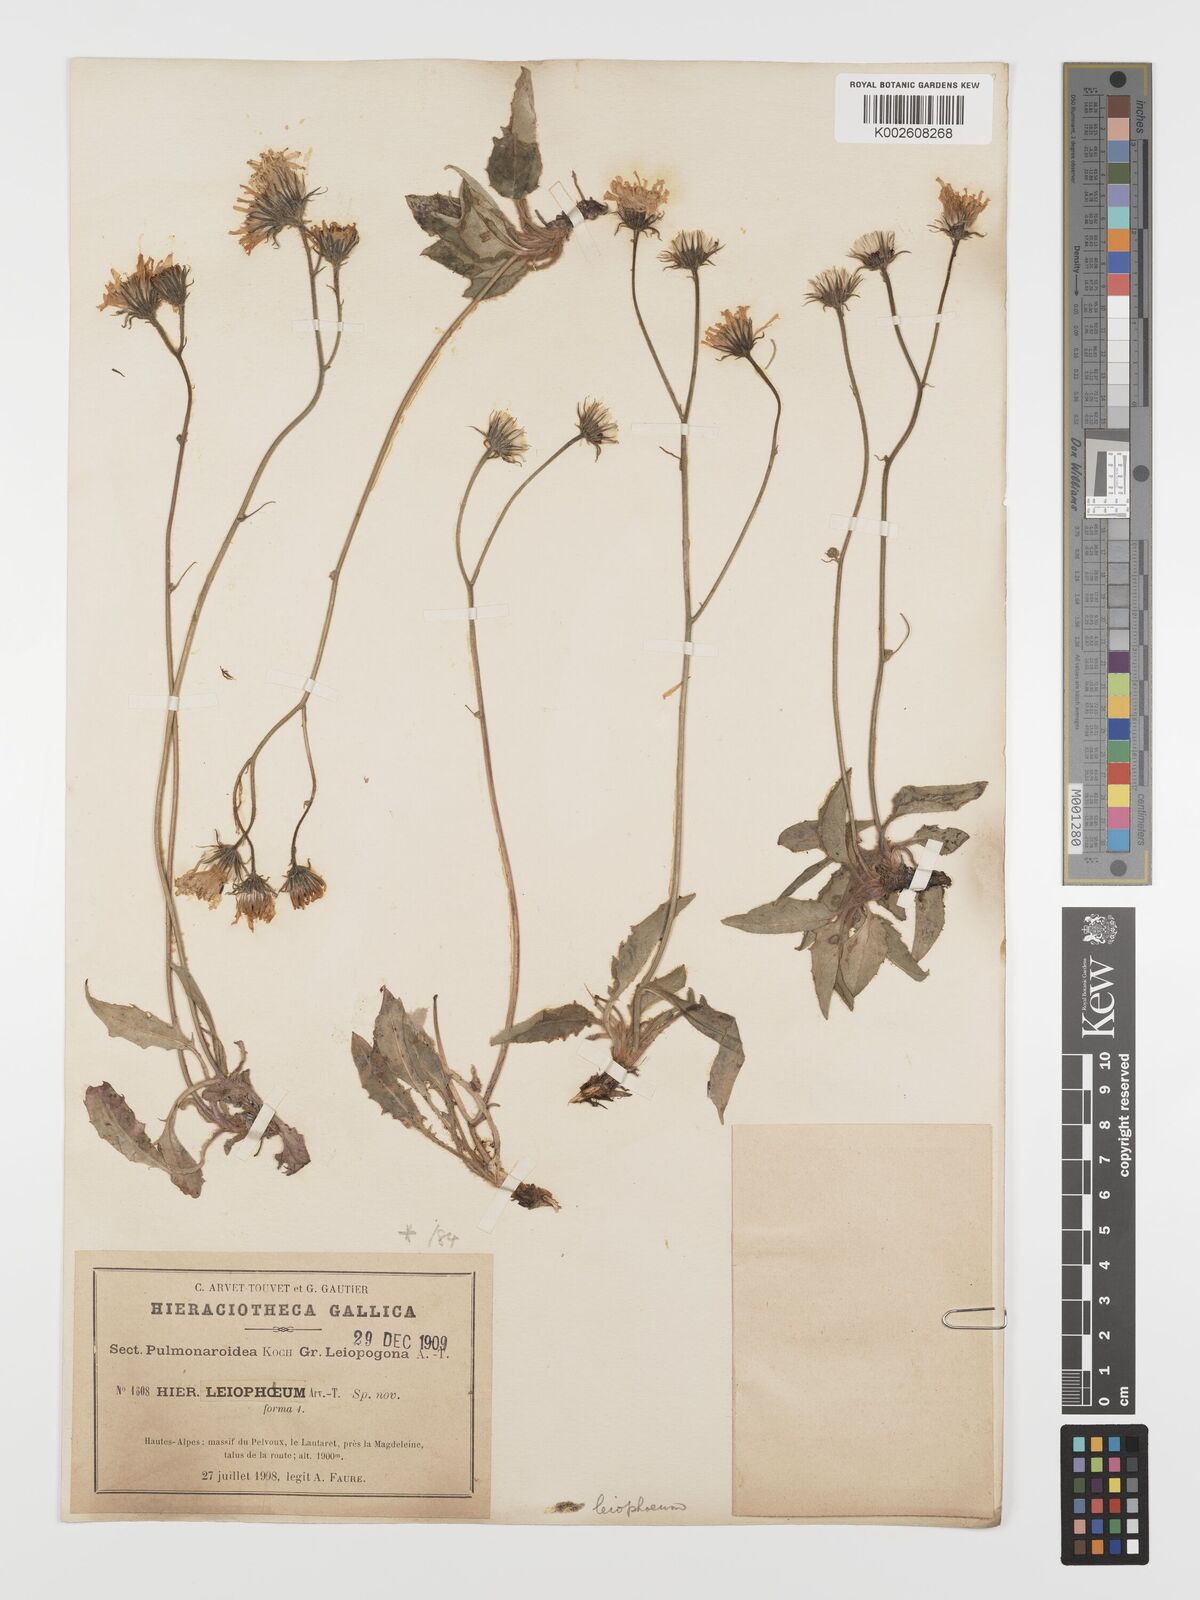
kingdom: Plantae
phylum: Tracheophyta
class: Magnoliopsida
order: Asterales
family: Asteraceae
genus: Hieracium
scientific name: Hieracium leiophaeum
